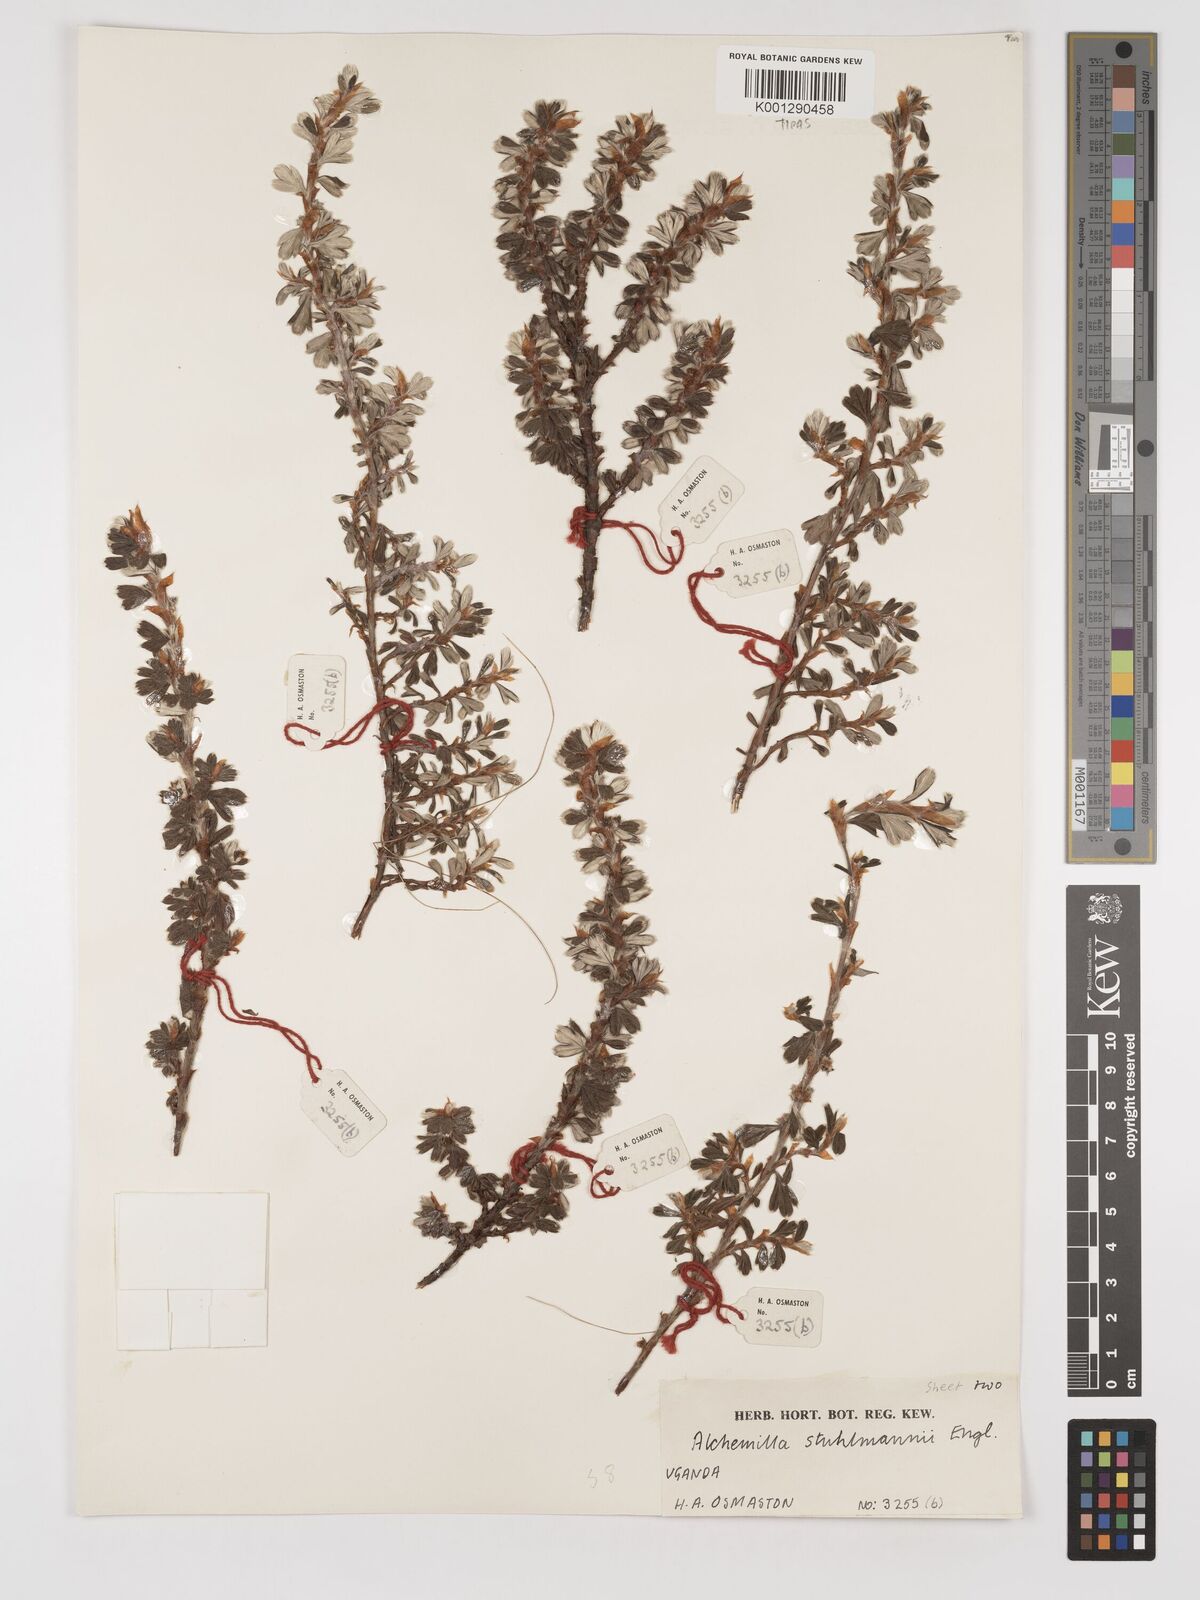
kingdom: Plantae
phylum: Tracheophyta
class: Magnoliopsida
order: Rosales
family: Rosaceae
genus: Alchemilla
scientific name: Alchemilla stuhlmannii
